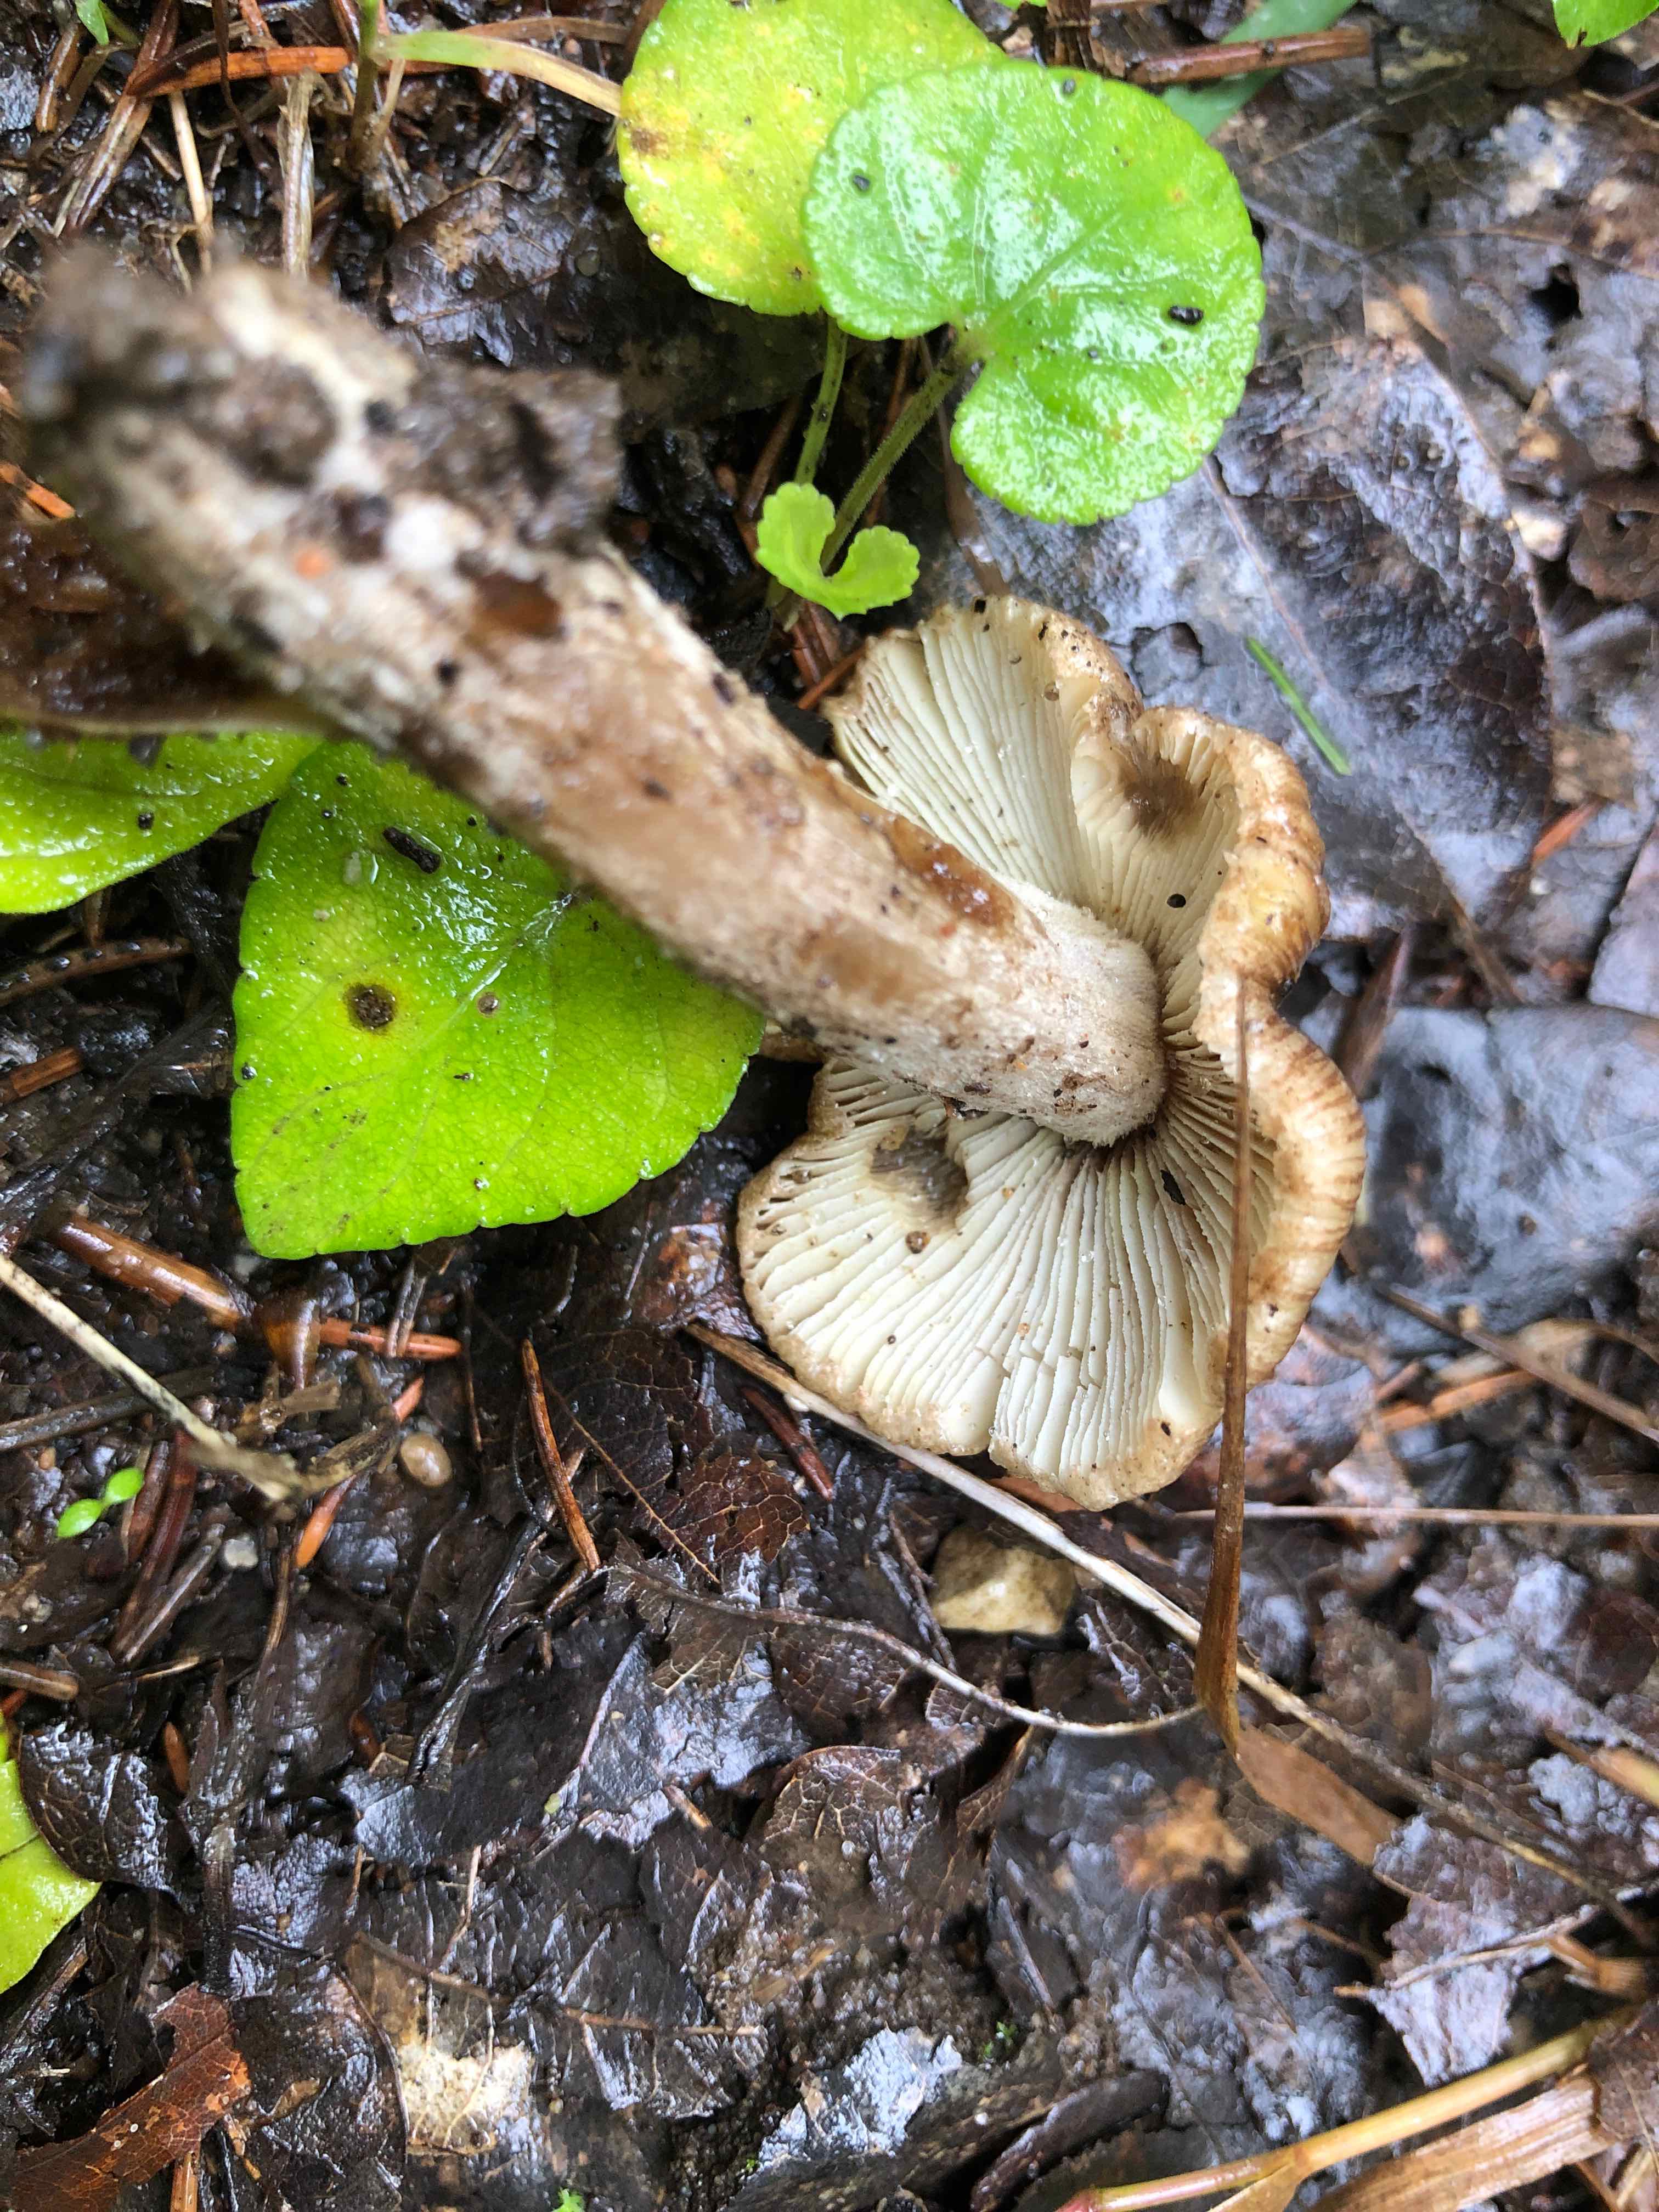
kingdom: Fungi
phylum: Basidiomycota
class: Agaricomycetes
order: Agaricales
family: Inocybaceae
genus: Pseudosperma
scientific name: Pseudosperma
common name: trævlhat
